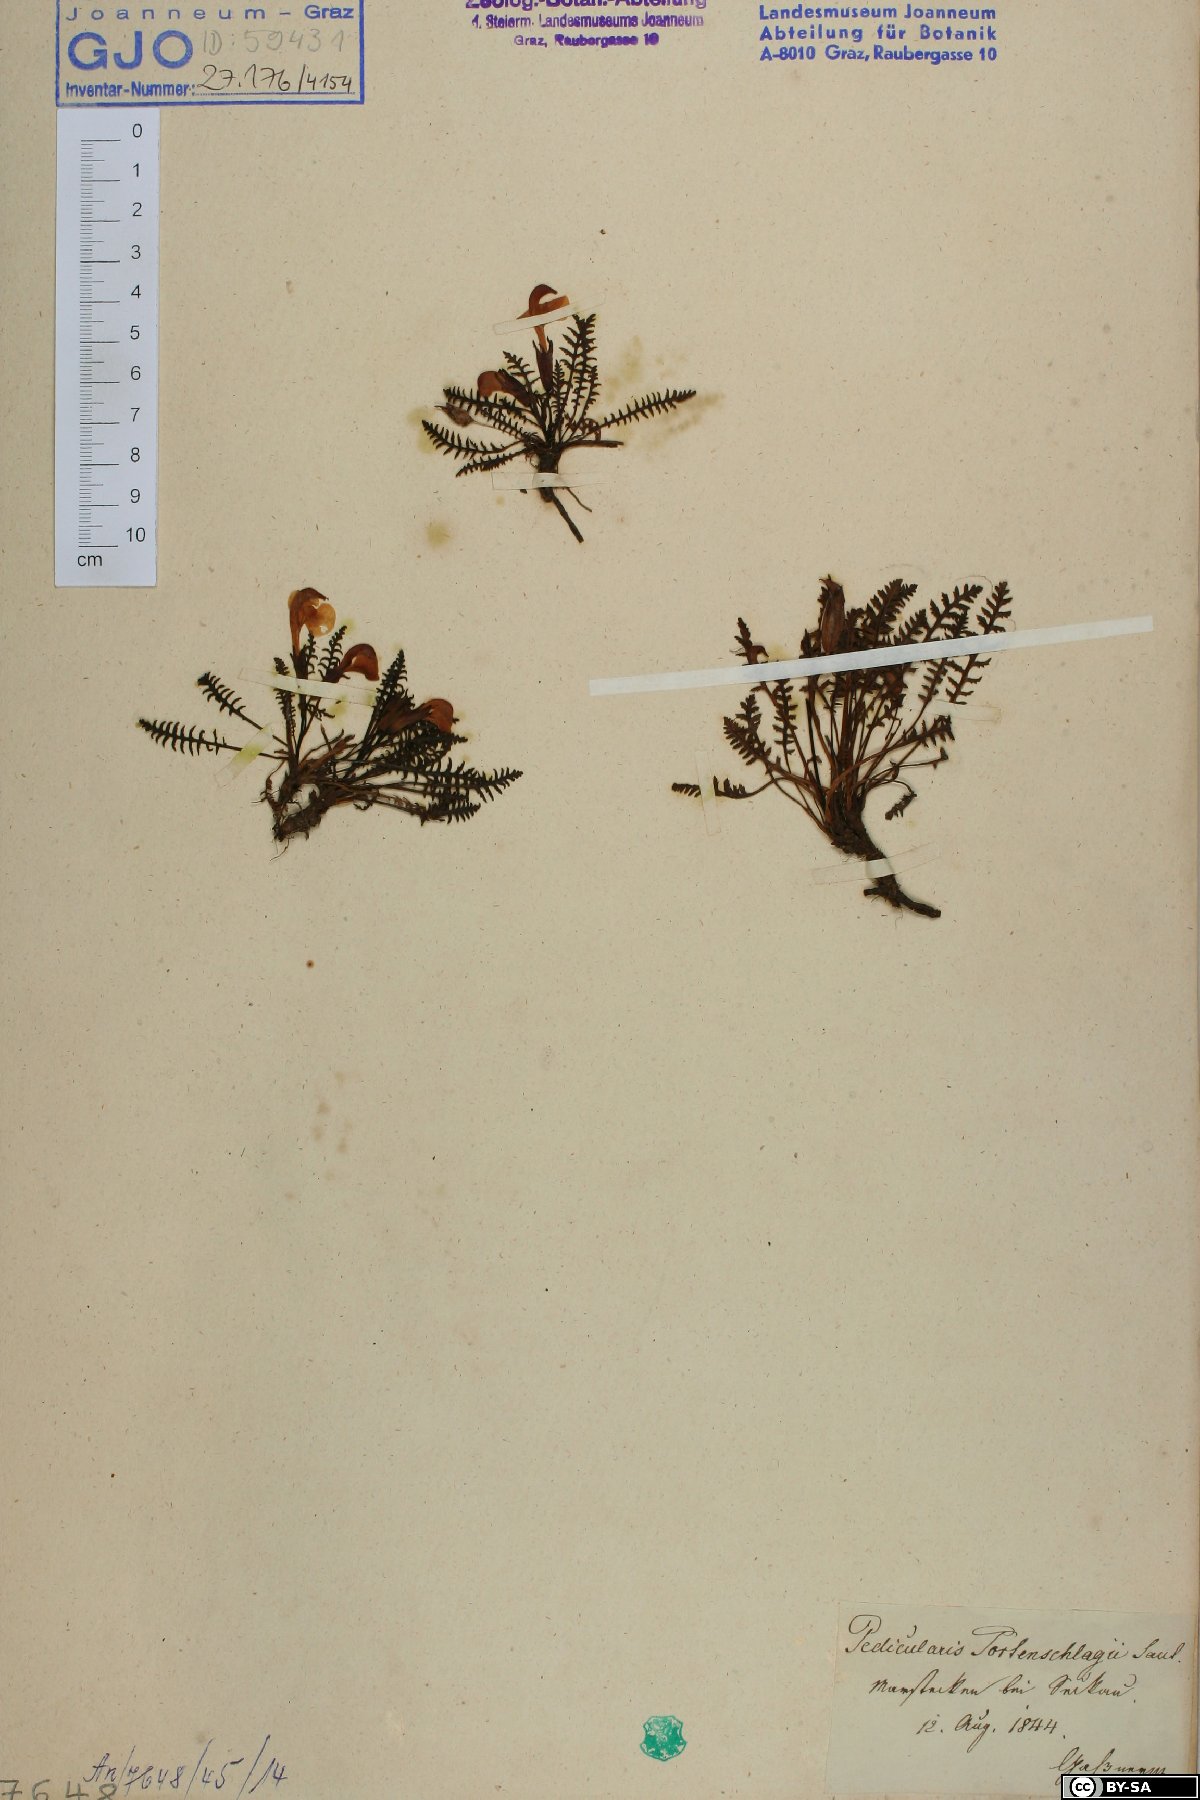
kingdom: Plantae
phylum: Tracheophyta
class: Magnoliopsida
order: Lamiales
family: Orobanchaceae
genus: Pedicularis
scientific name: Pedicularis portenschlagii
